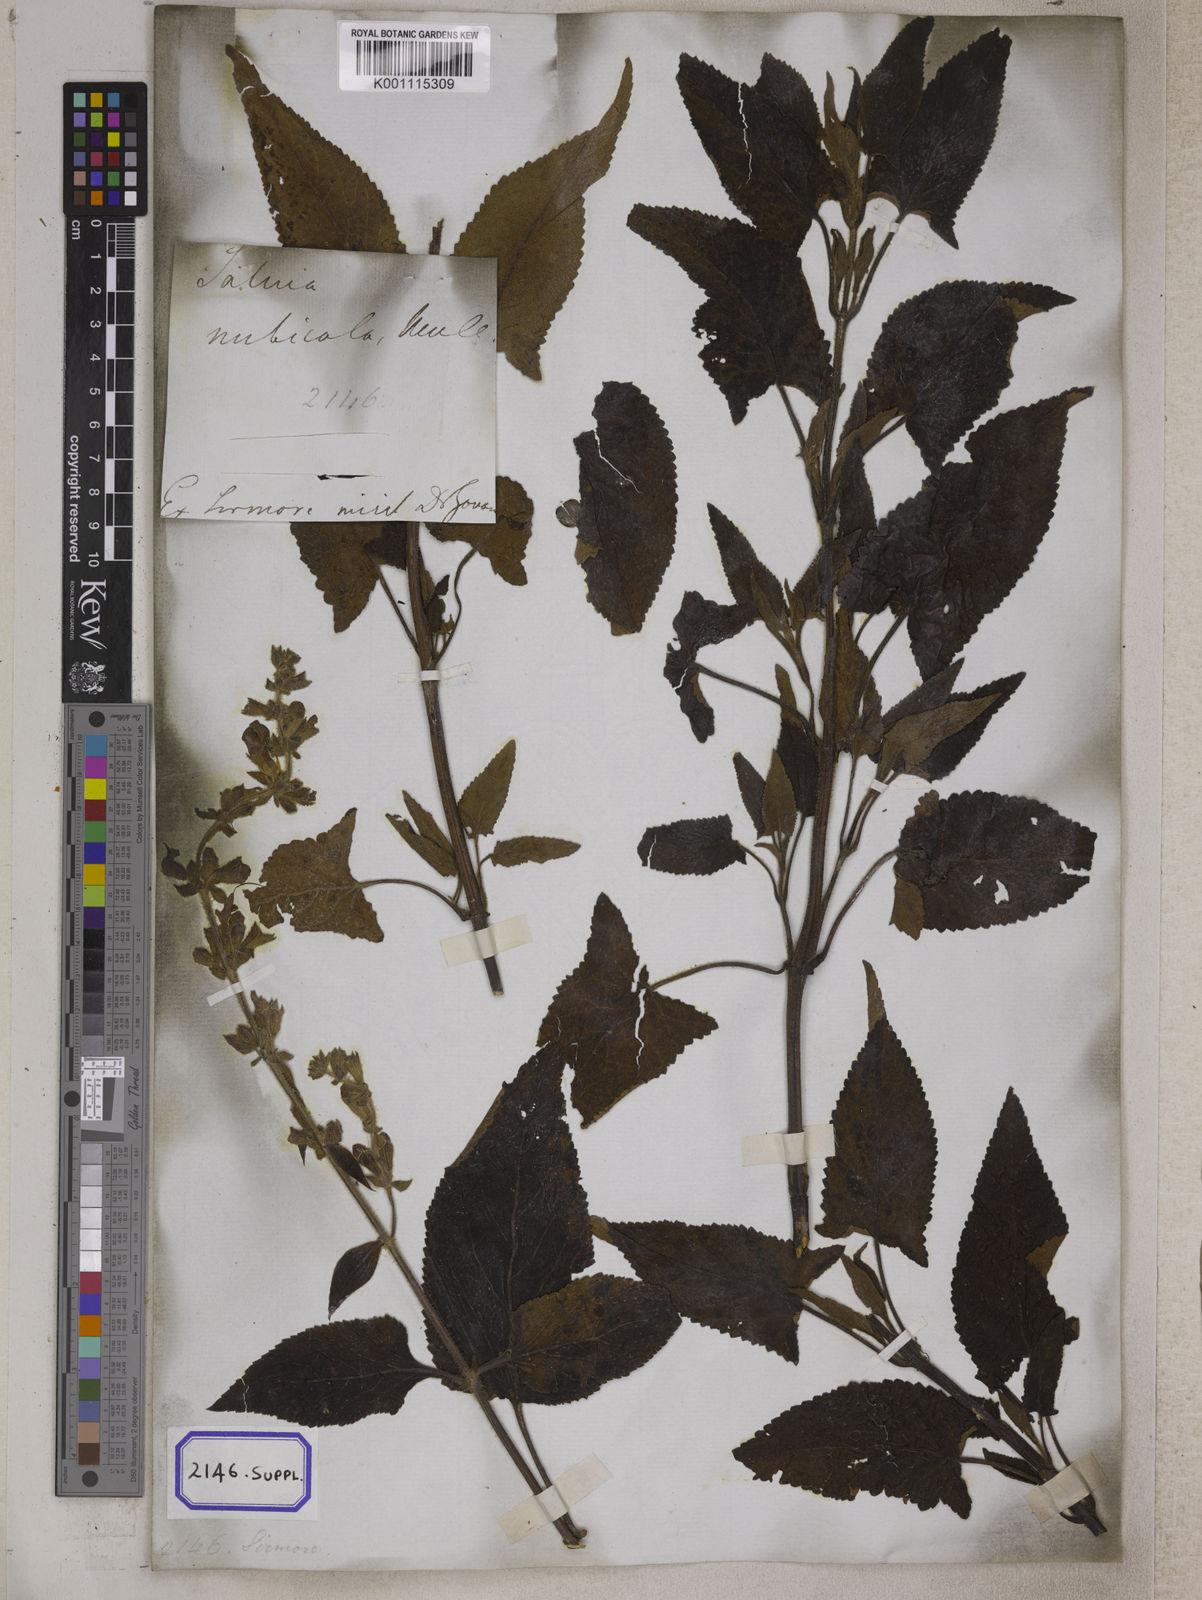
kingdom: Plantae
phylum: Tracheophyta
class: Magnoliopsida
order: Lamiales
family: Lamiaceae
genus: Salvia
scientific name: Salvia
